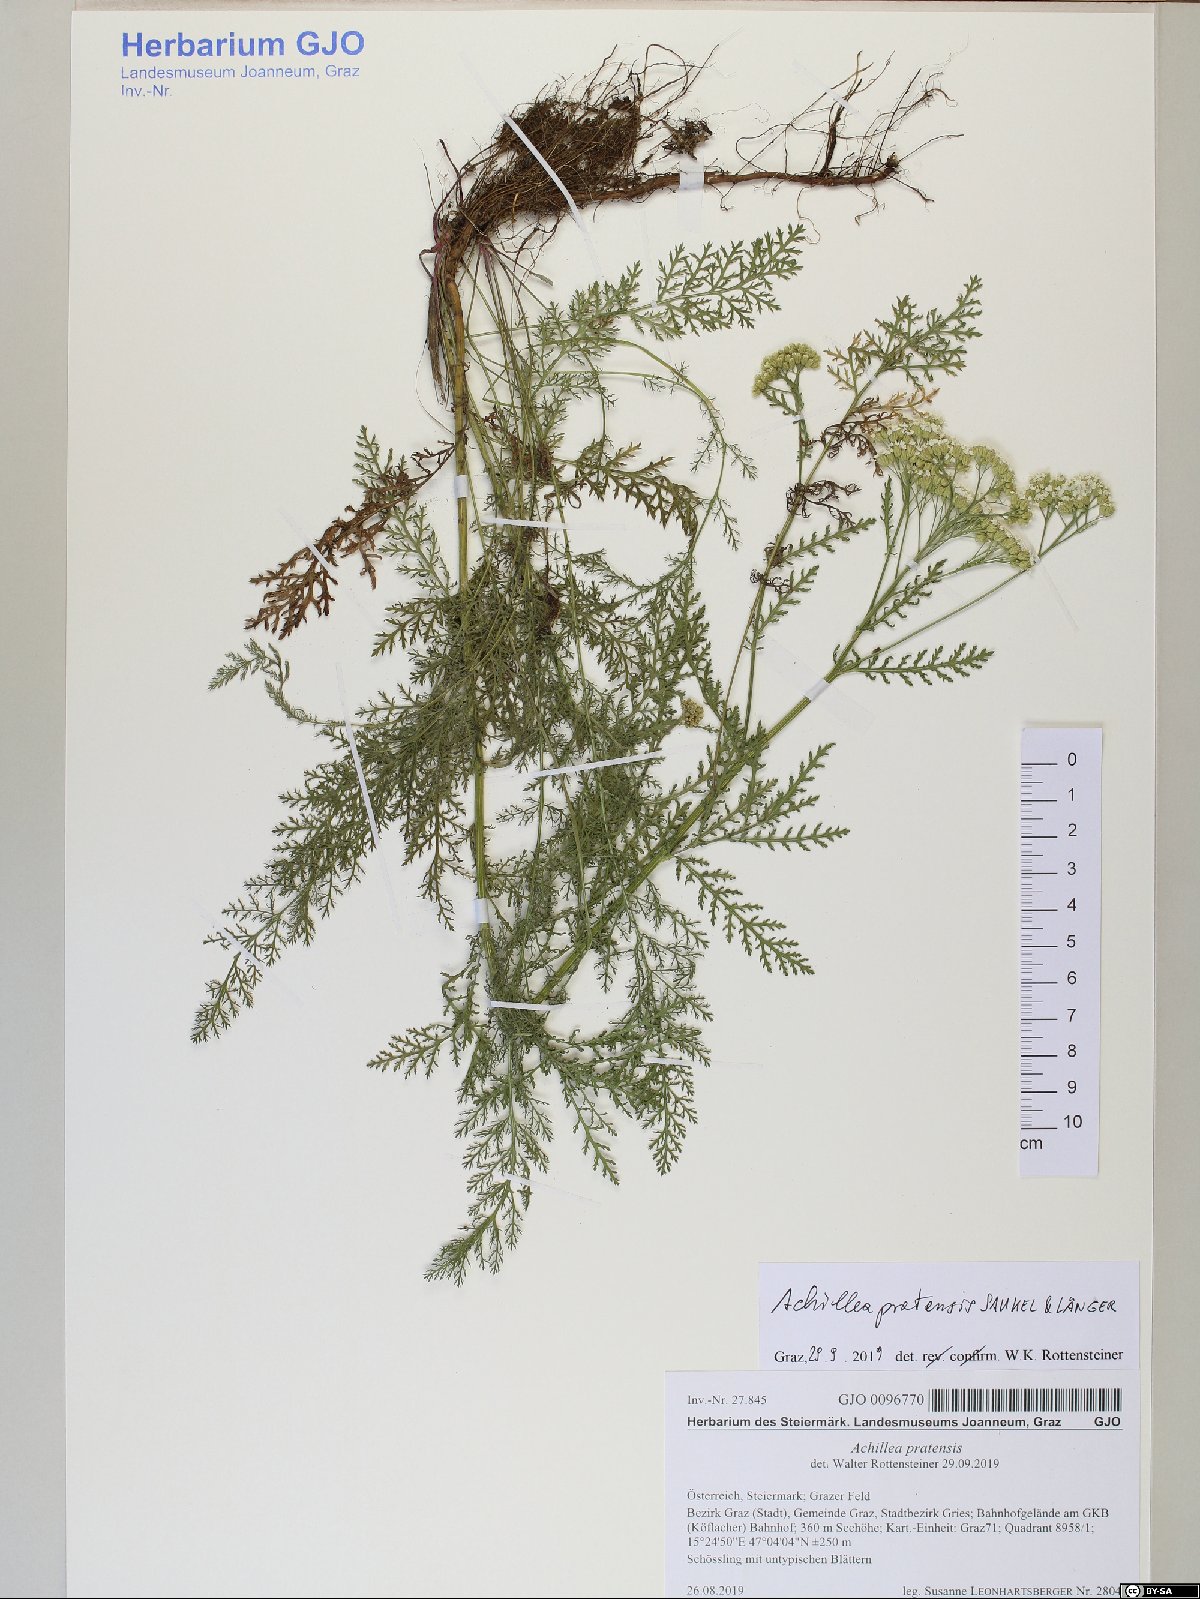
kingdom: Plantae
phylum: Tracheophyta
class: Magnoliopsida
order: Asterales
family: Asteraceae
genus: Achillea
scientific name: Achillea pratensis
